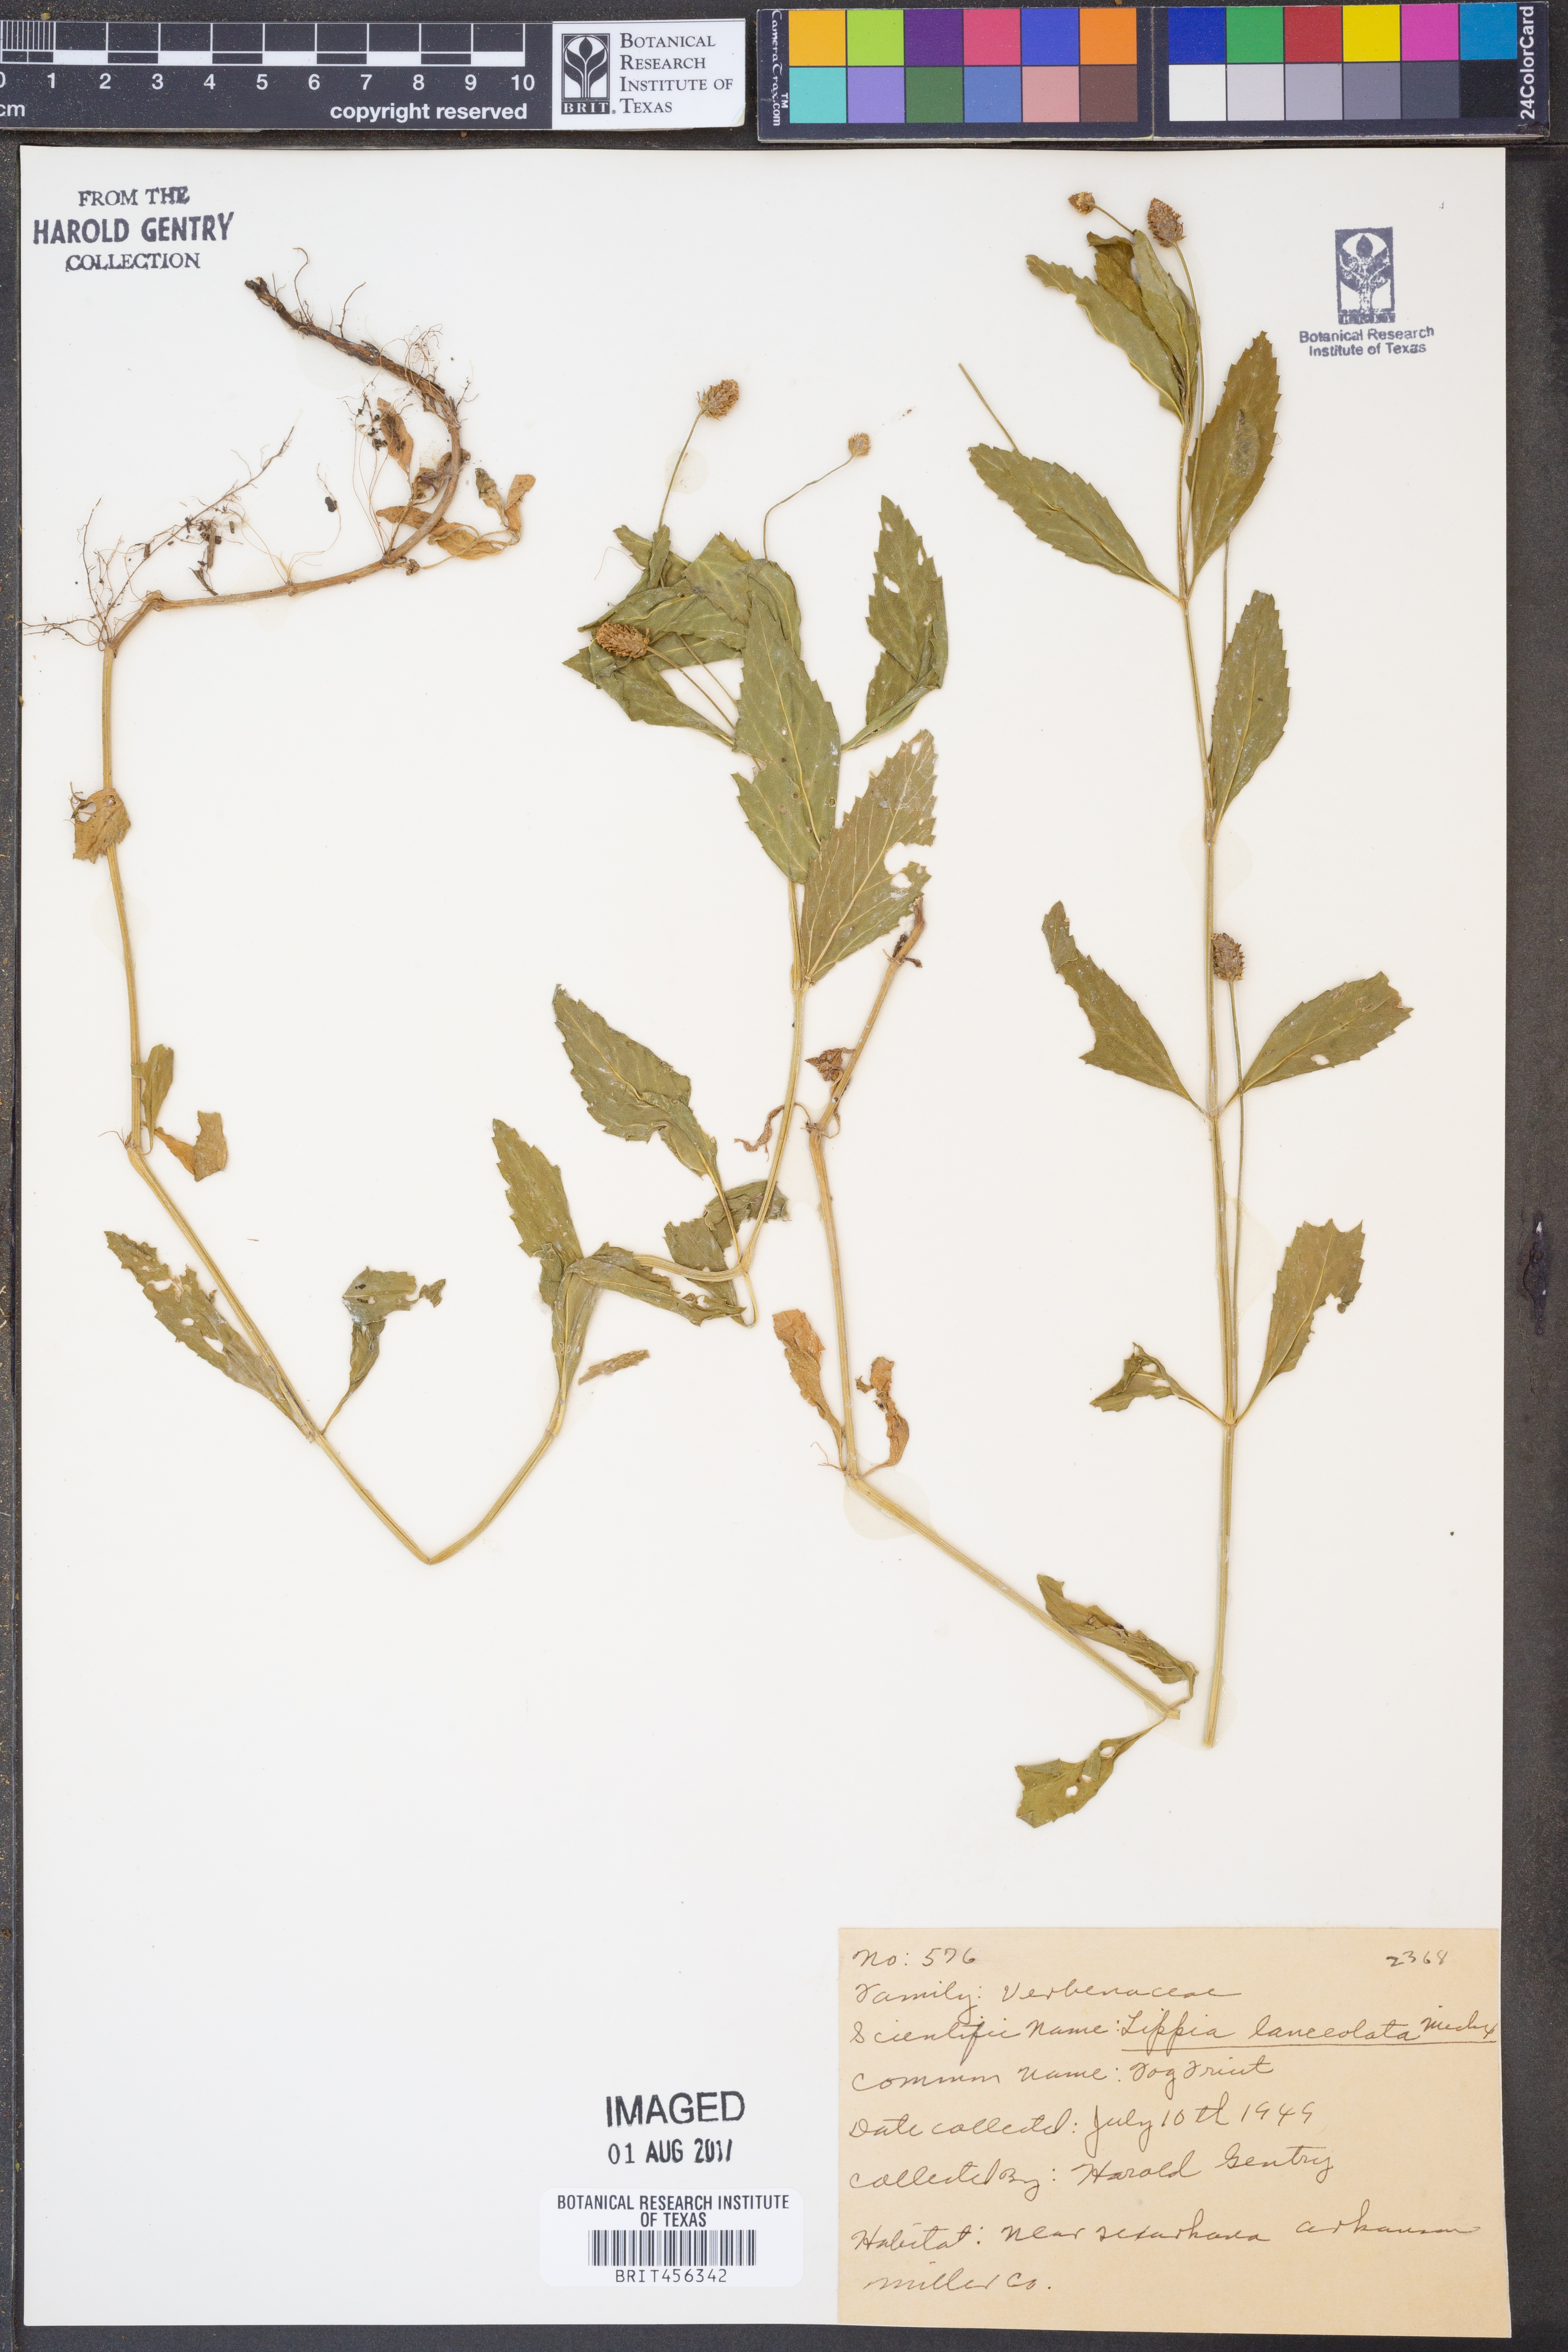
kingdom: Plantae
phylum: Tracheophyta
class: Magnoliopsida
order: Lamiales
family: Verbenaceae
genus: Phyla
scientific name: Phyla lanceolata
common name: Northern fogfruit
